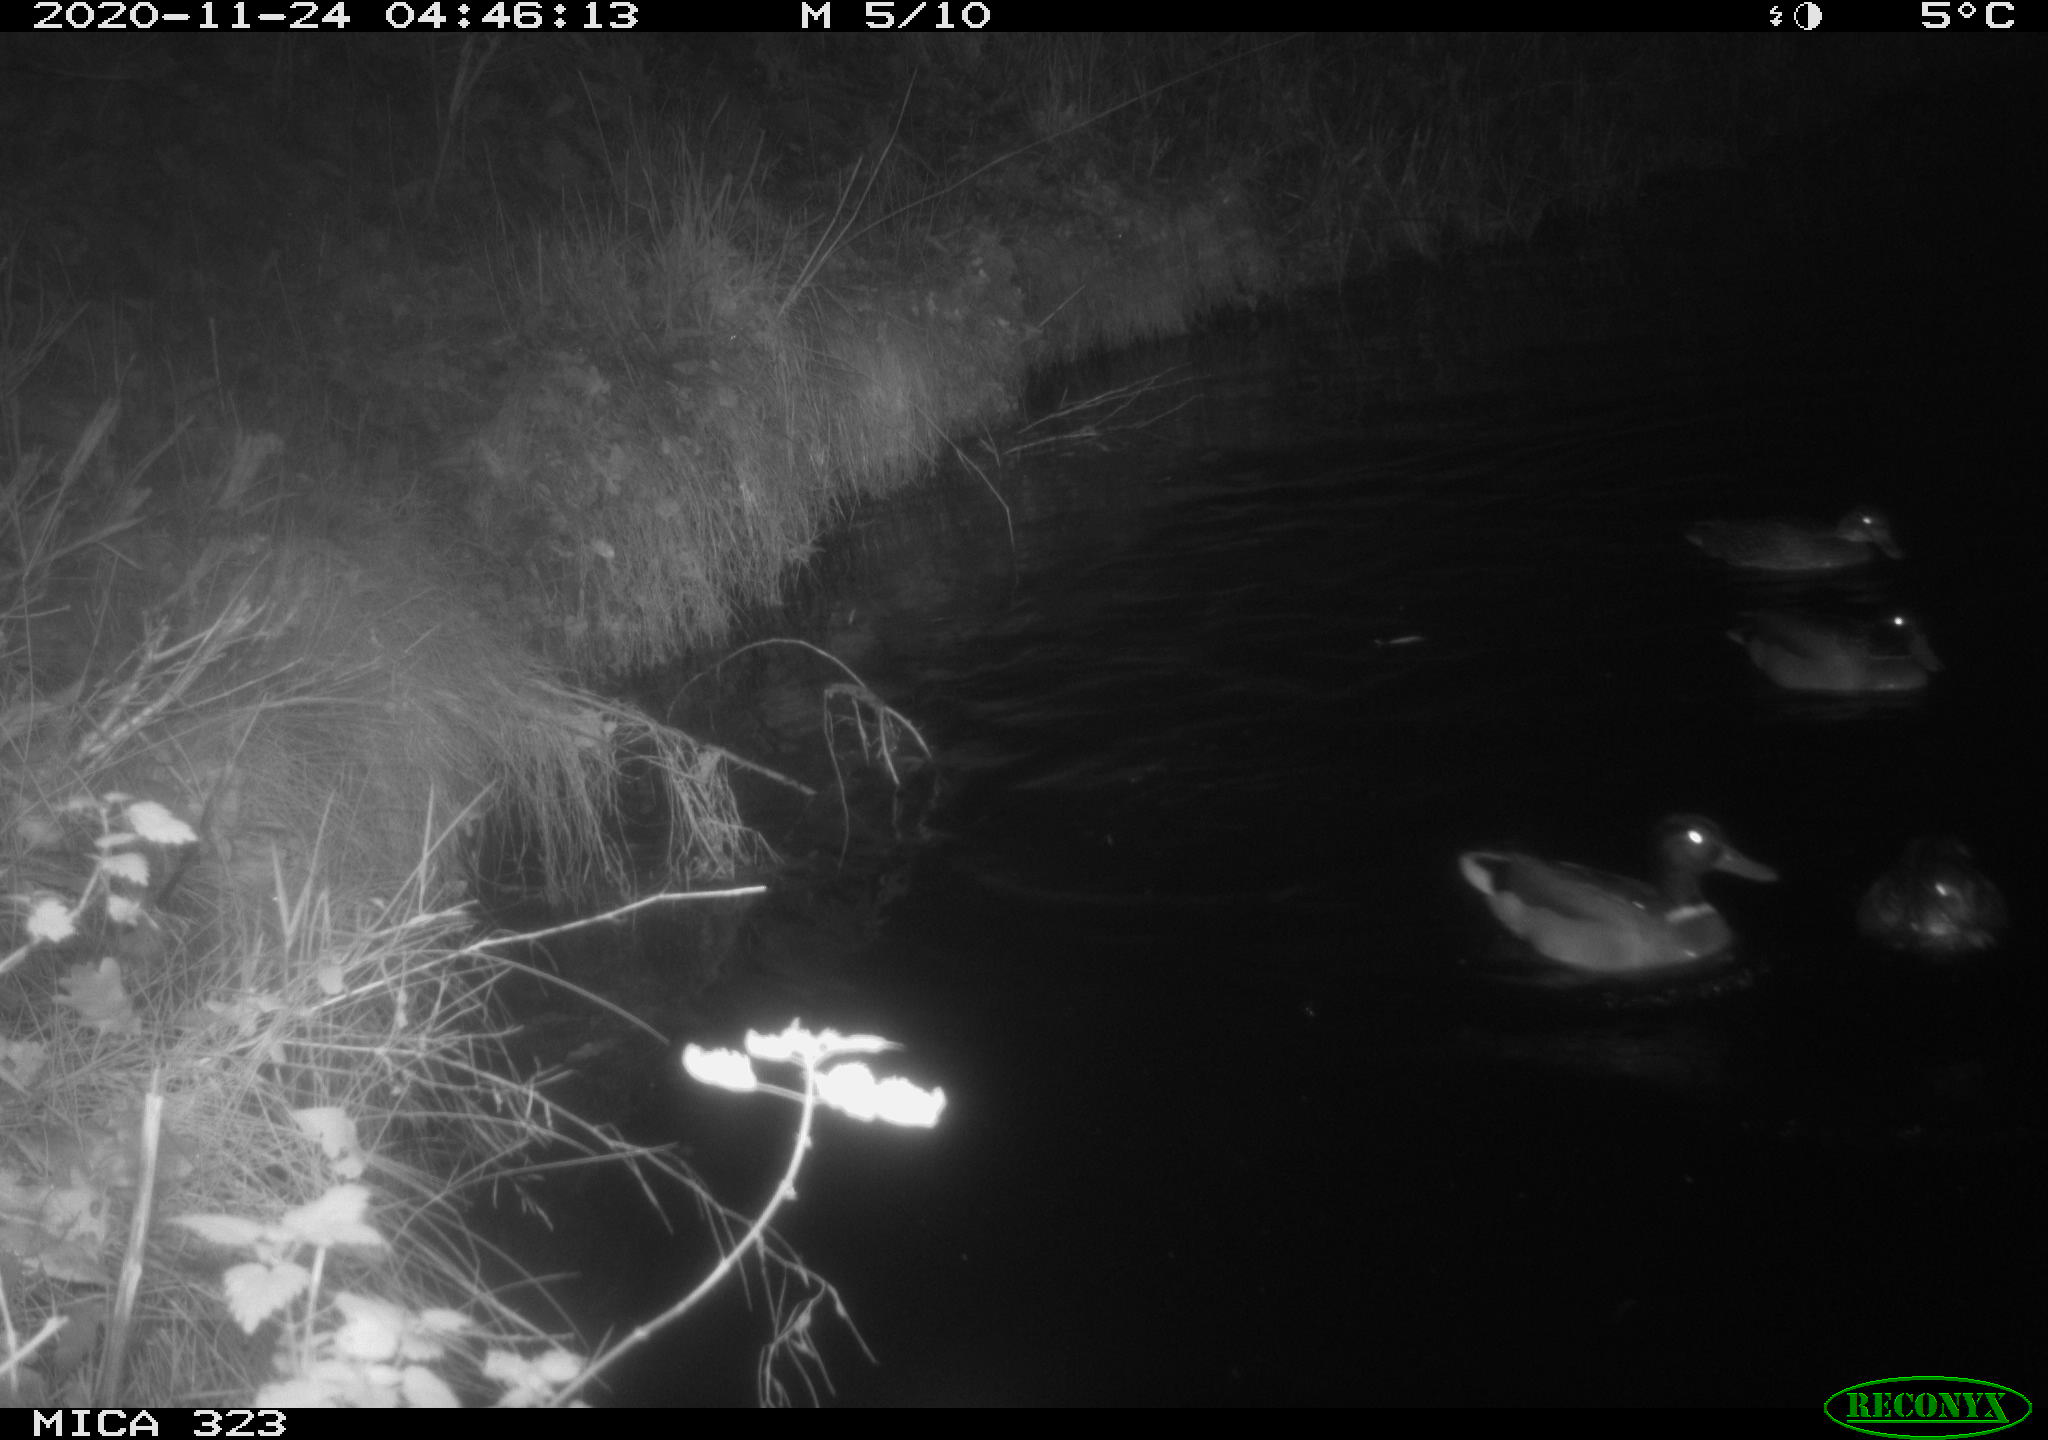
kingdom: Animalia
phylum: Chordata
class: Aves
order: Anseriformes
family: Anatidae
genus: Anas
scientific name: Anas platyrhynchos
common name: Mallard
